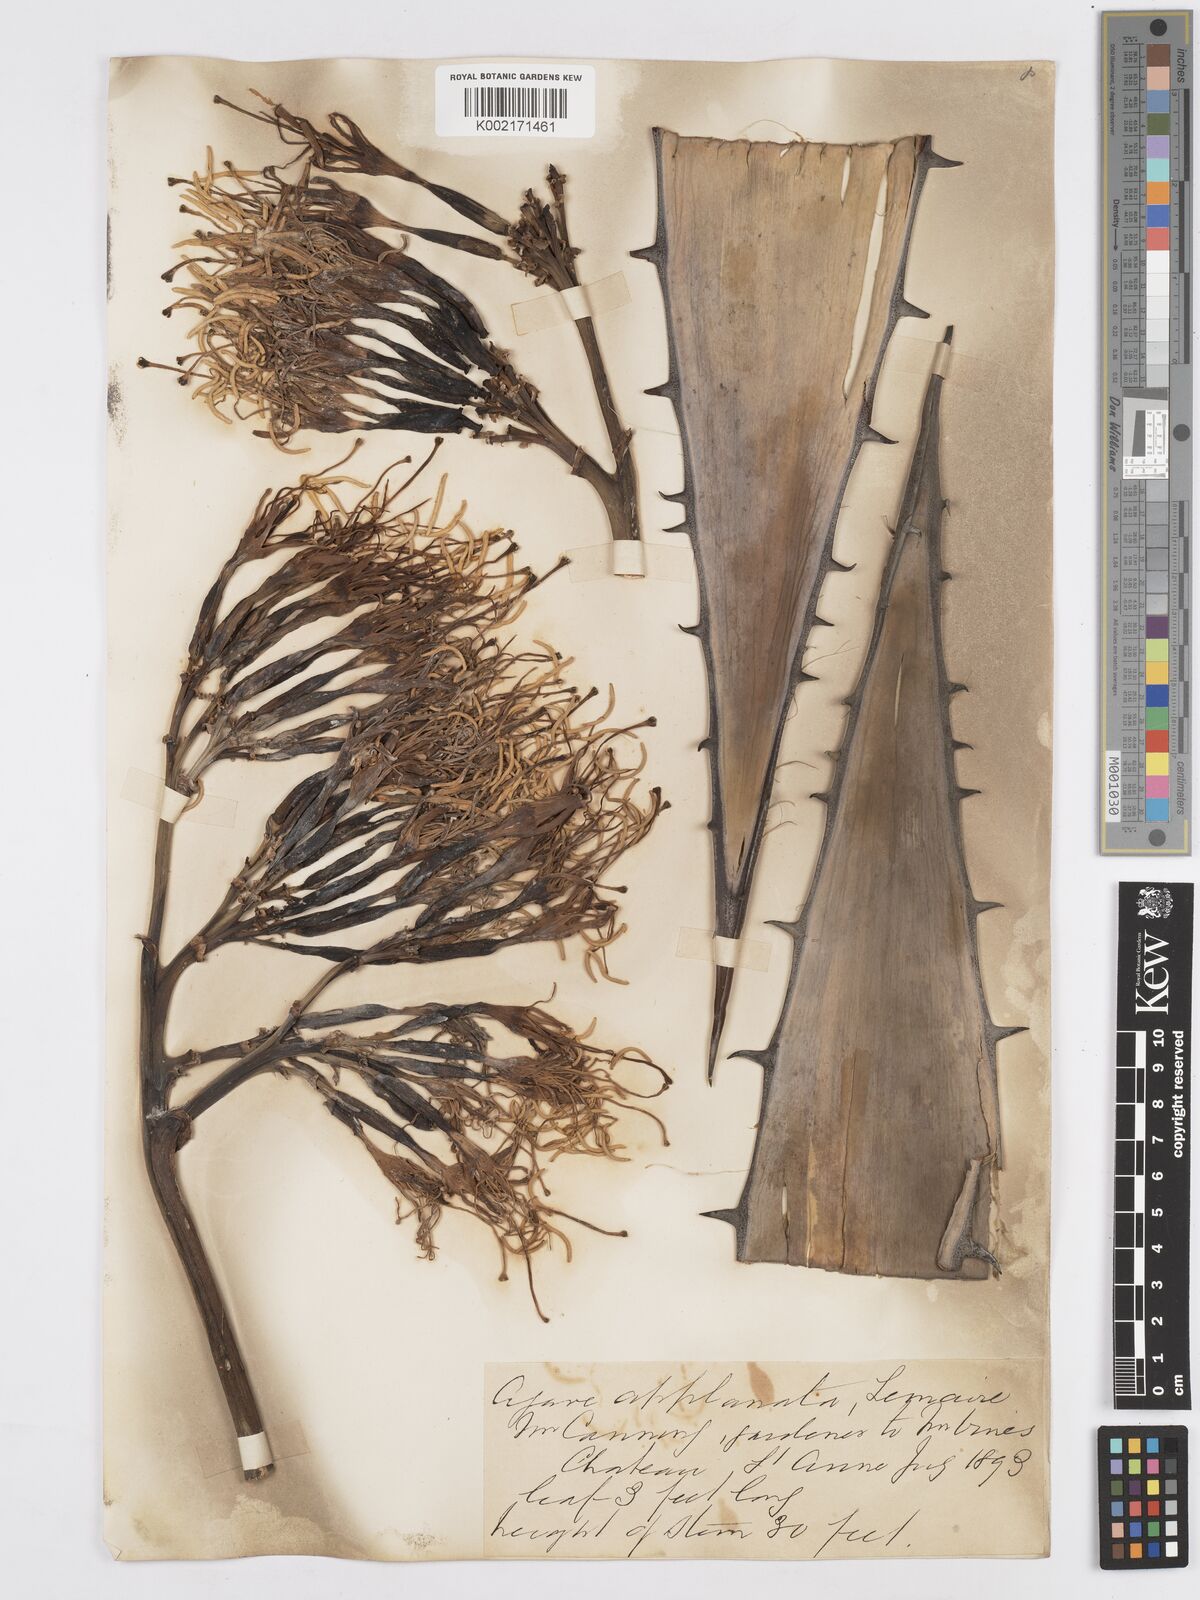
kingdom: Plantae
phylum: Tracheophyta
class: Liliopsida
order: Asparagales
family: Asparagaceae
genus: Agave
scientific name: Agave applanata
